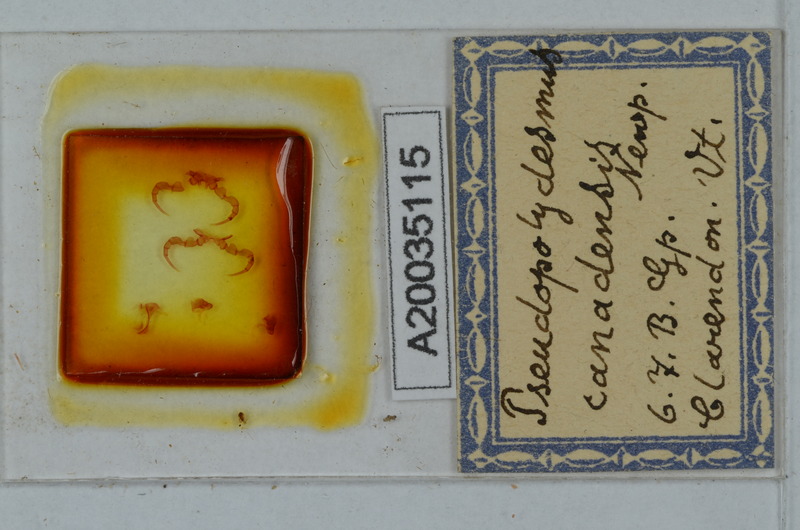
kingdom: Animalia
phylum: Arthropoda
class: Diplopoda
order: Polydesmida
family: Polydesmidae
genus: Pseudopolydesmus
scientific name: Pseudopolydesmus canadensis
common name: Canadian flat-back millipede
